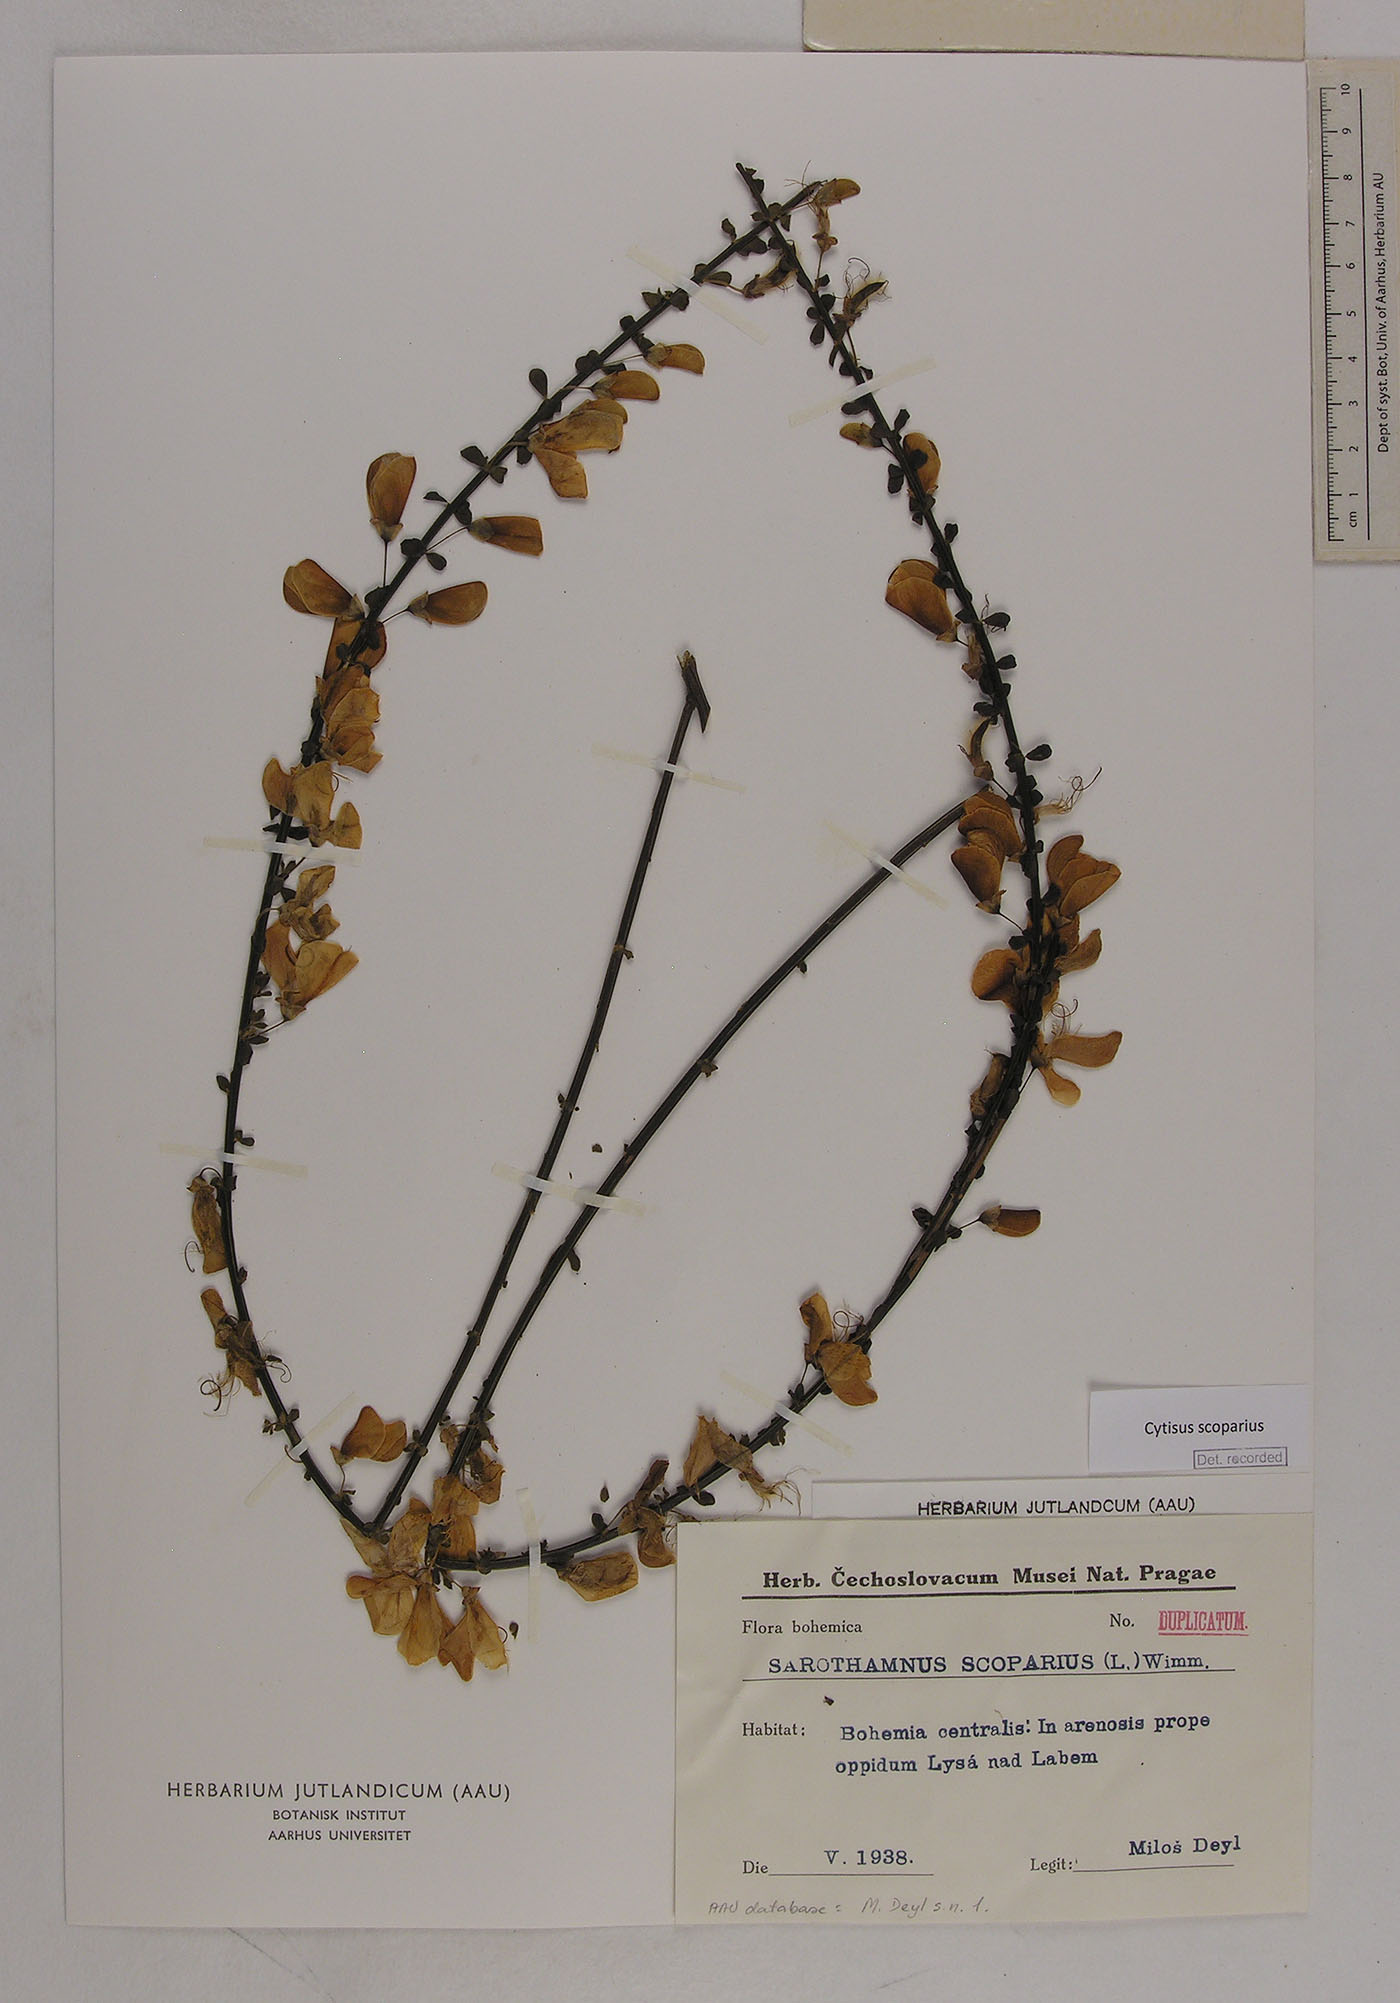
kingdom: Plantae
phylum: Tracheophyta
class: Magnoliopsida
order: Fabales
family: Fabaceae
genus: Cytisus
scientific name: Cytisus scoparius
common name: Scotch broom
